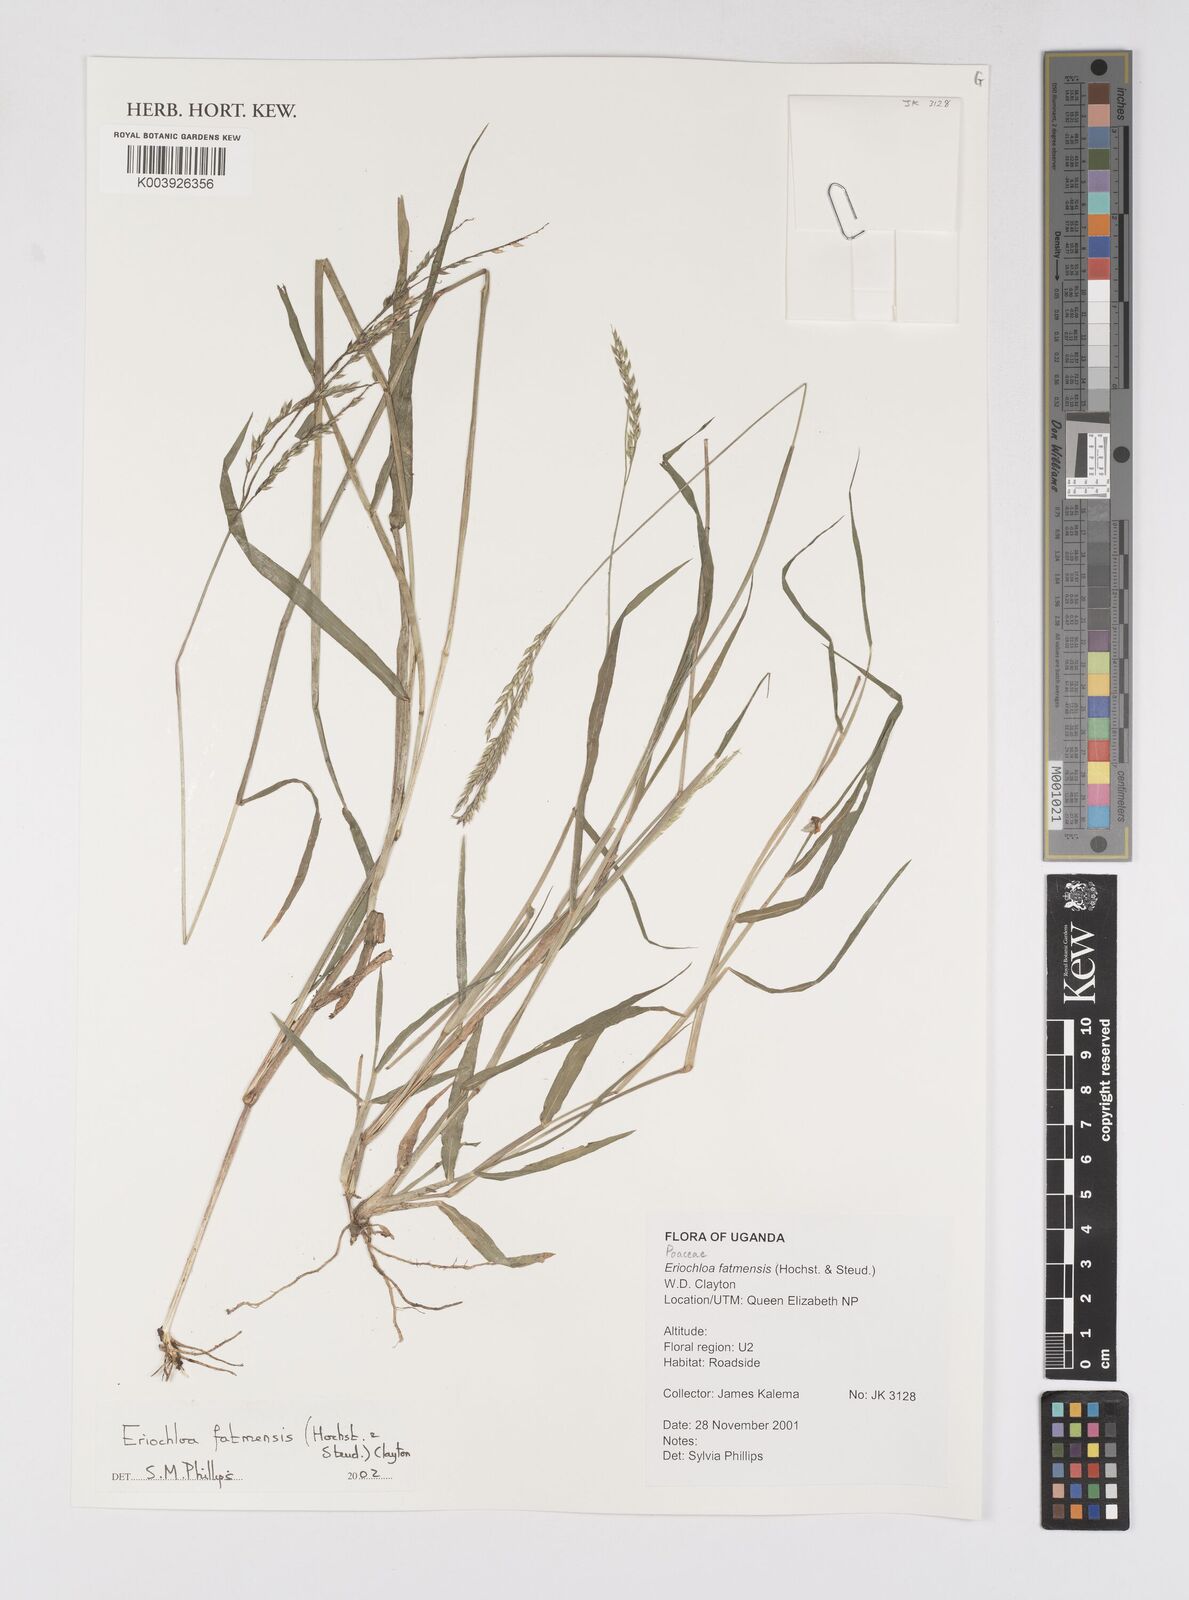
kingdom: Plantae
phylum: Tracheophyta
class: Liliopsida
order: Poales
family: Poaceae
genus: Eriochloa
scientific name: Eriochloa barbatus
